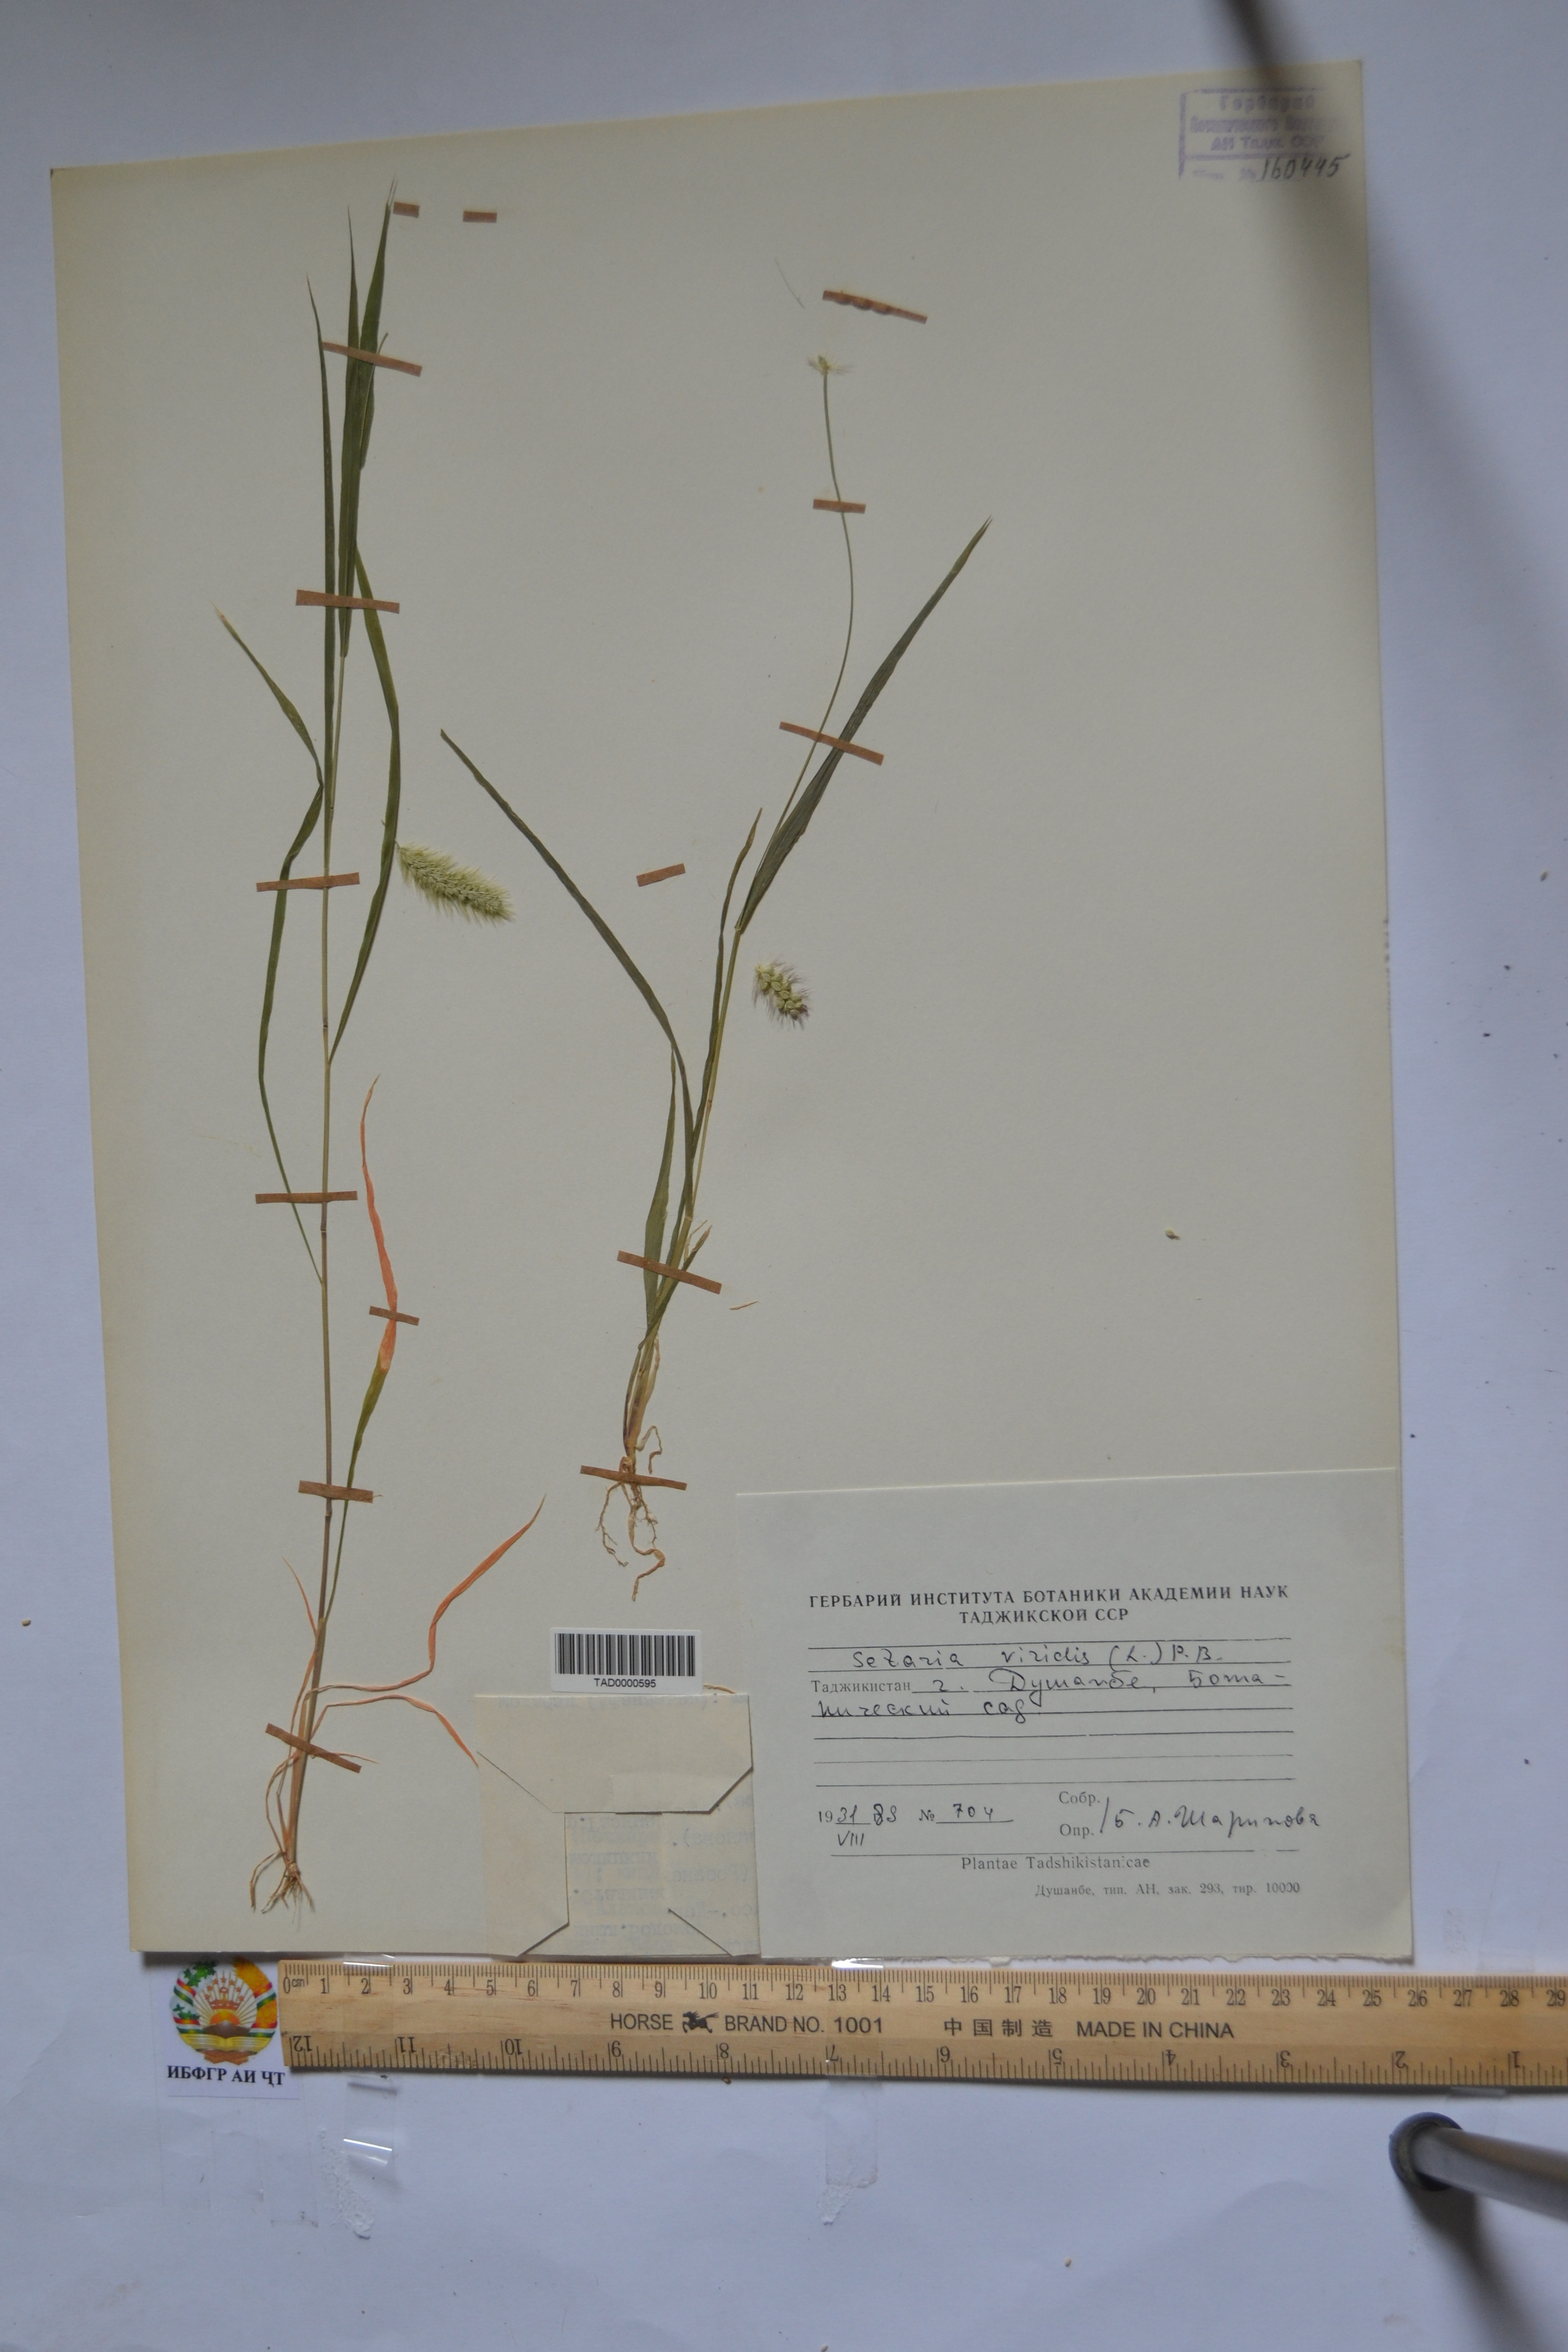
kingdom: Plantae
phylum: Tracheophyta
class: Liliopsida
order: Poales
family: Poaceae
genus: Setaria
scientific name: Setaria viridis
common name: Green bristlegrass
